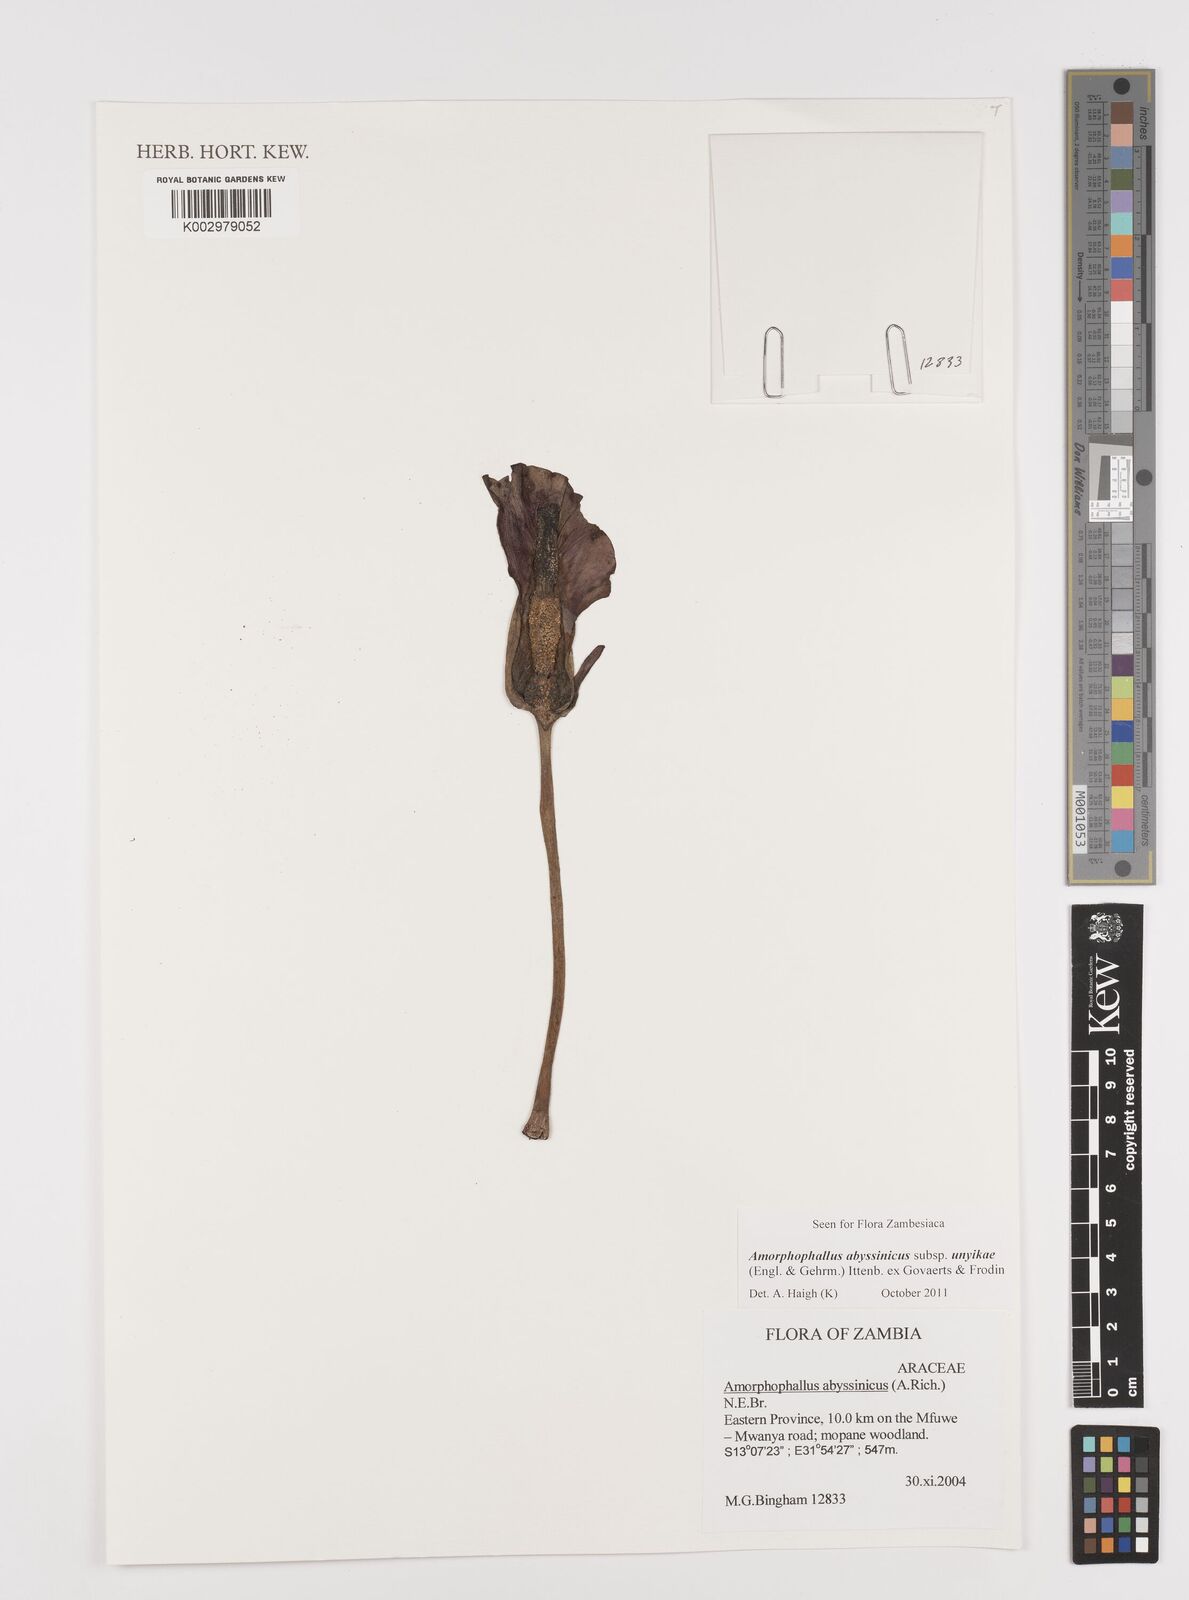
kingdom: Plantae
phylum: Tracheophyta
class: Liliopsida
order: Alismatales
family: Araceae
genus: Amorphophallus
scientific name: Amorphophallus abyssinicus
